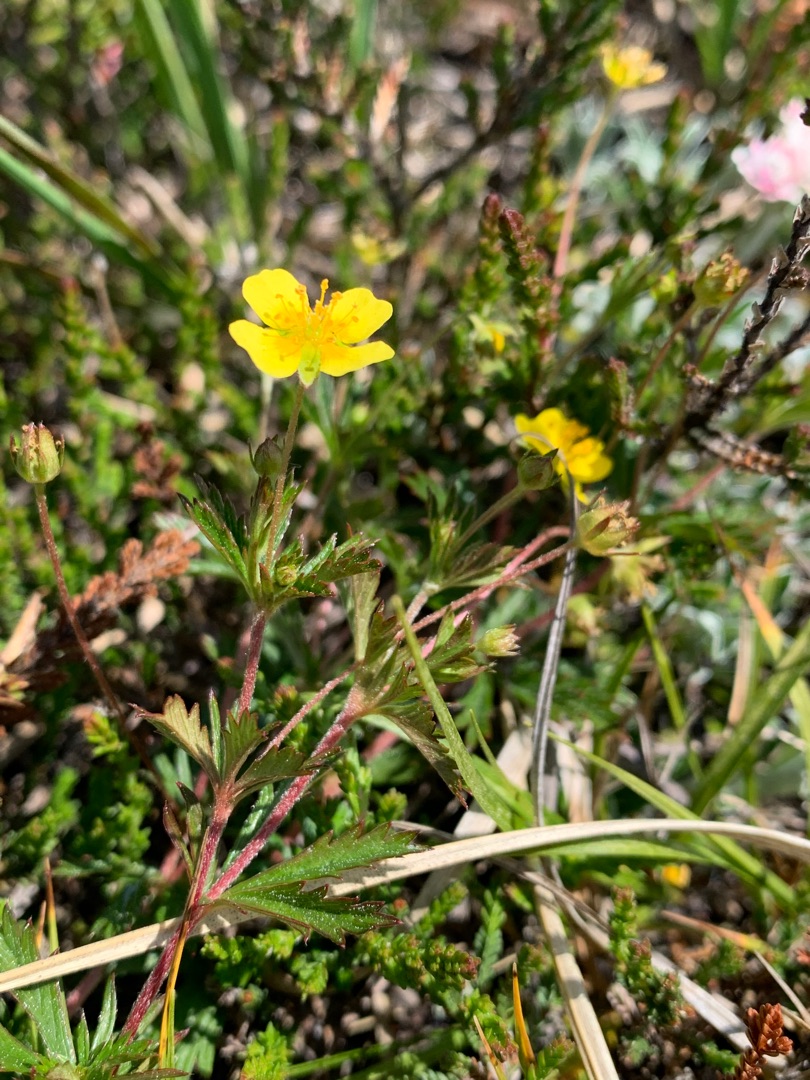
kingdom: Plantae
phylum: Tracheophyta
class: Magnoliopsida
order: Rosales
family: Rosaceae
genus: Potentilla
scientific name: Potentilla erecta
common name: Tormentil
